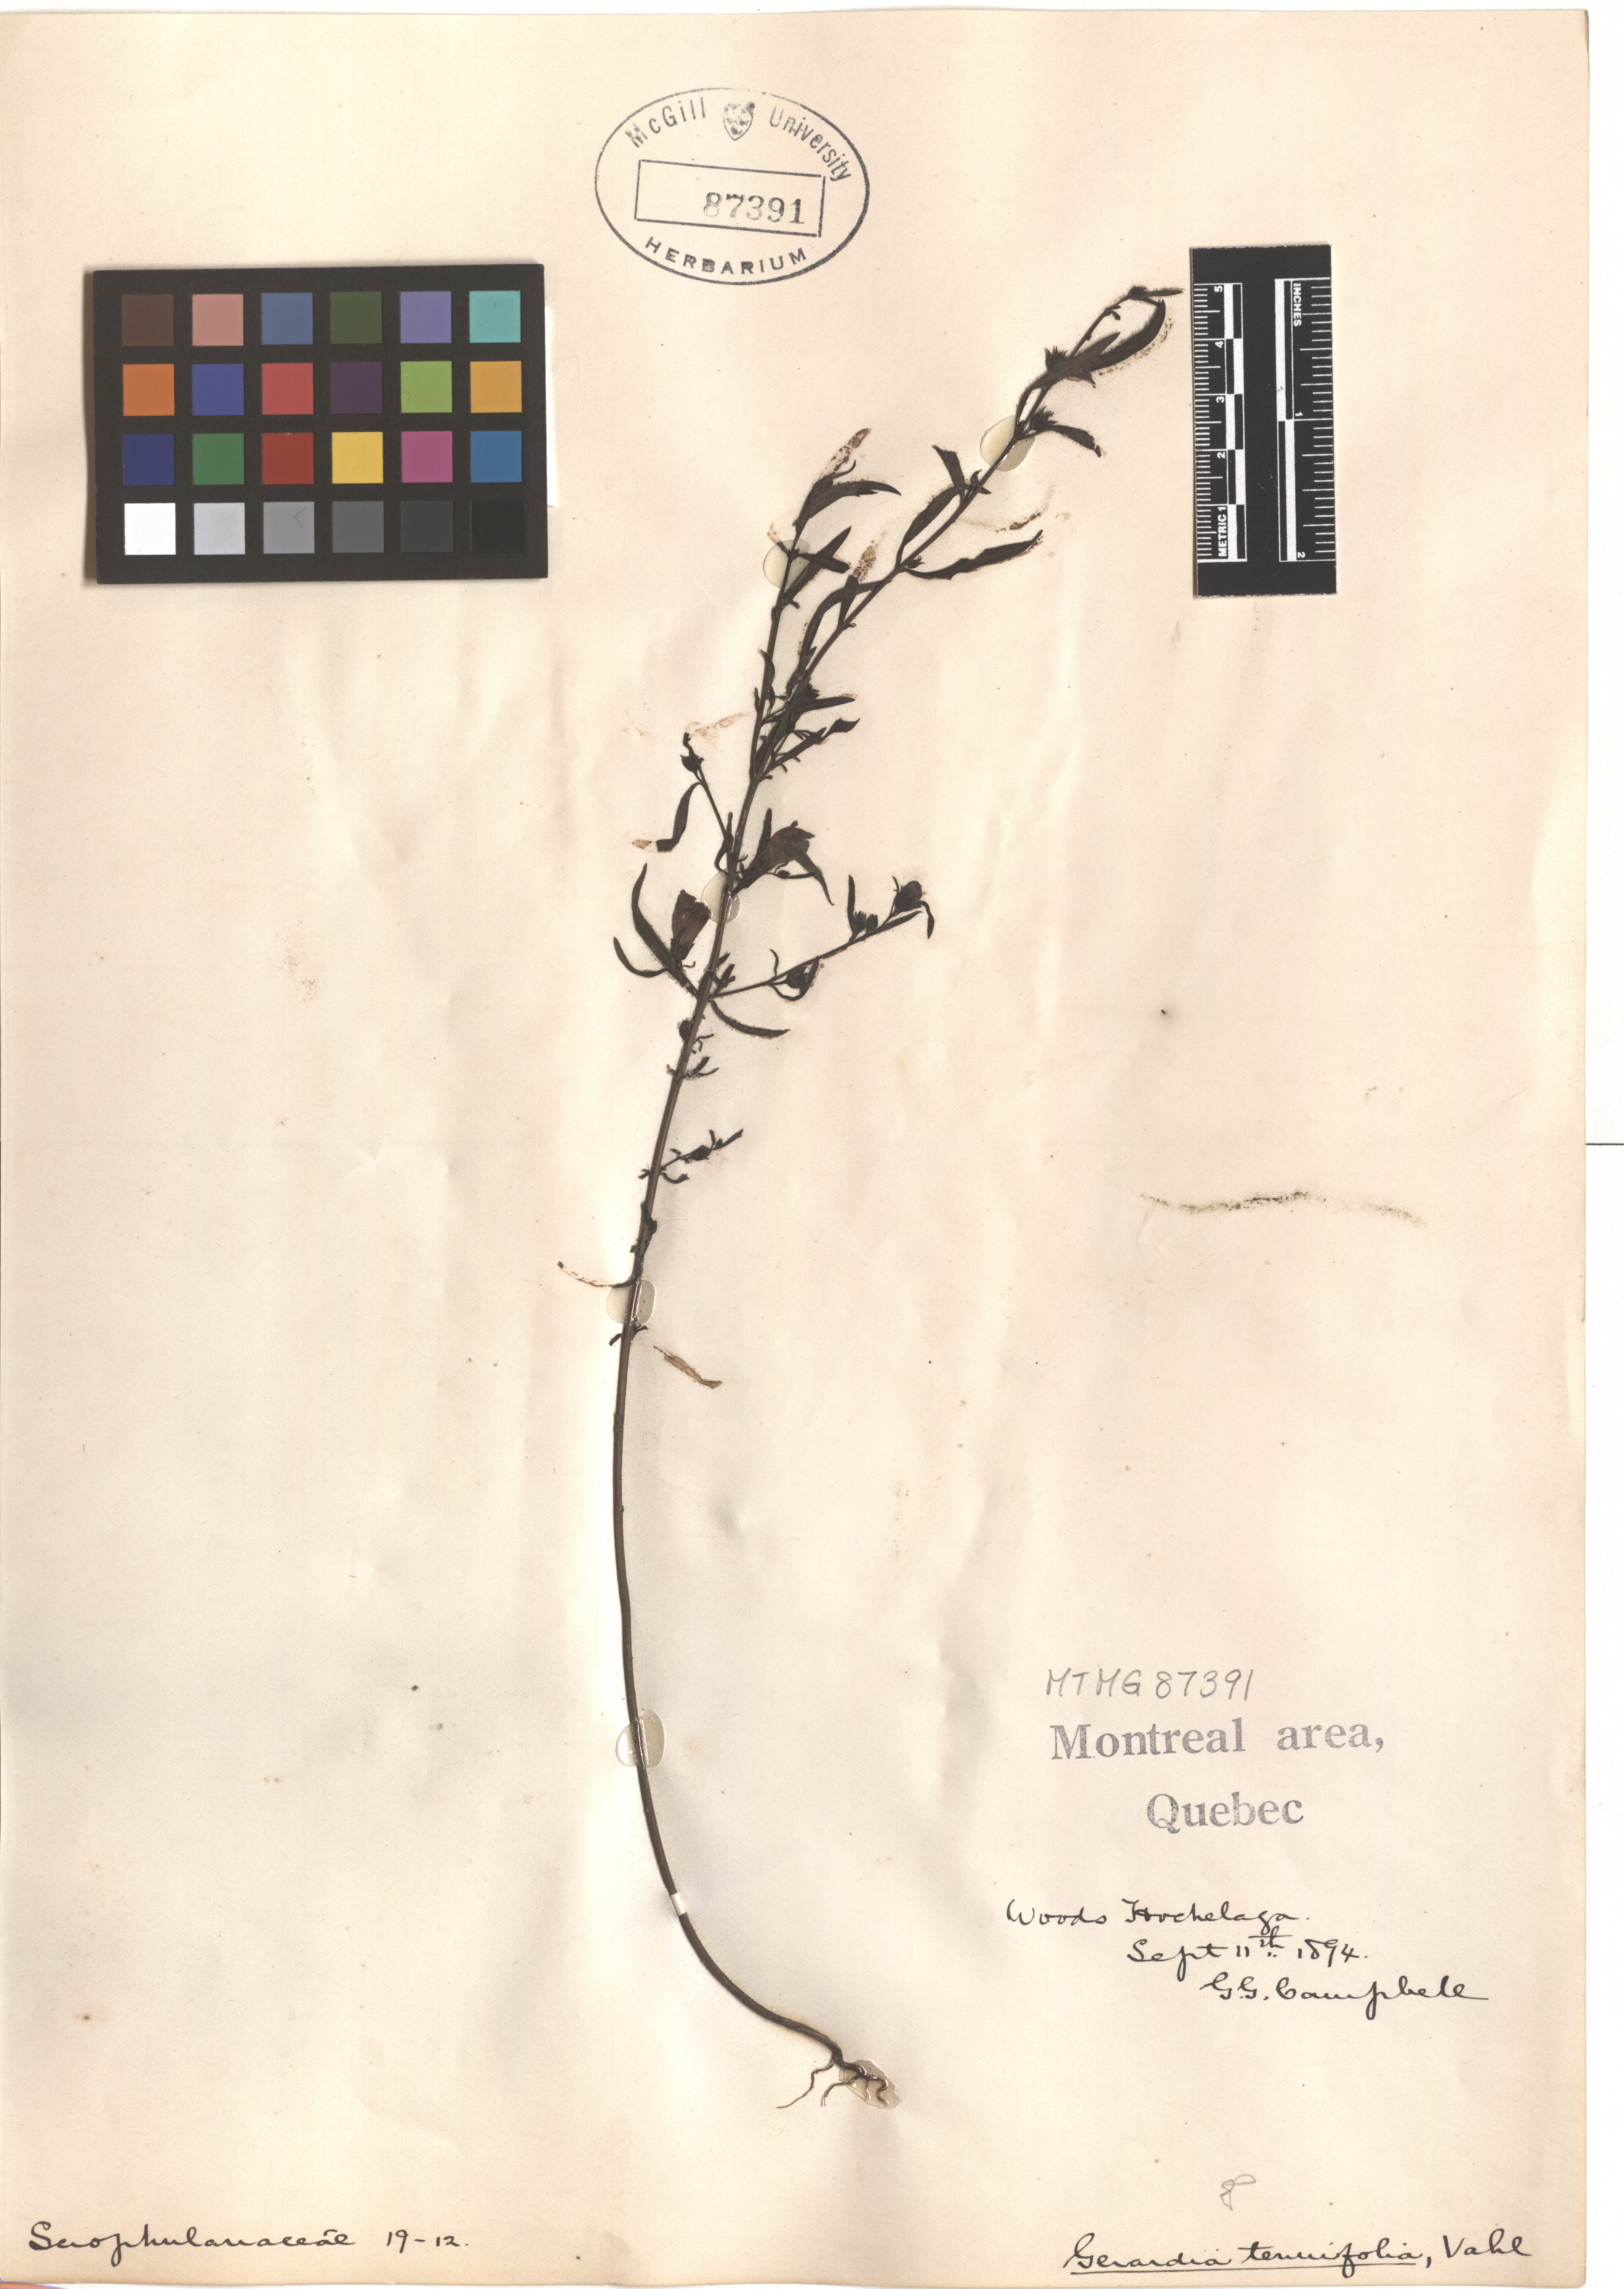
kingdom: Plantae
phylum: Tracheophyta
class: Magnoliopsida
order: Lamiales
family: Orobanchaceae
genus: Agalinis
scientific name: Agalinis tenuifolia
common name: Slender agalinis
